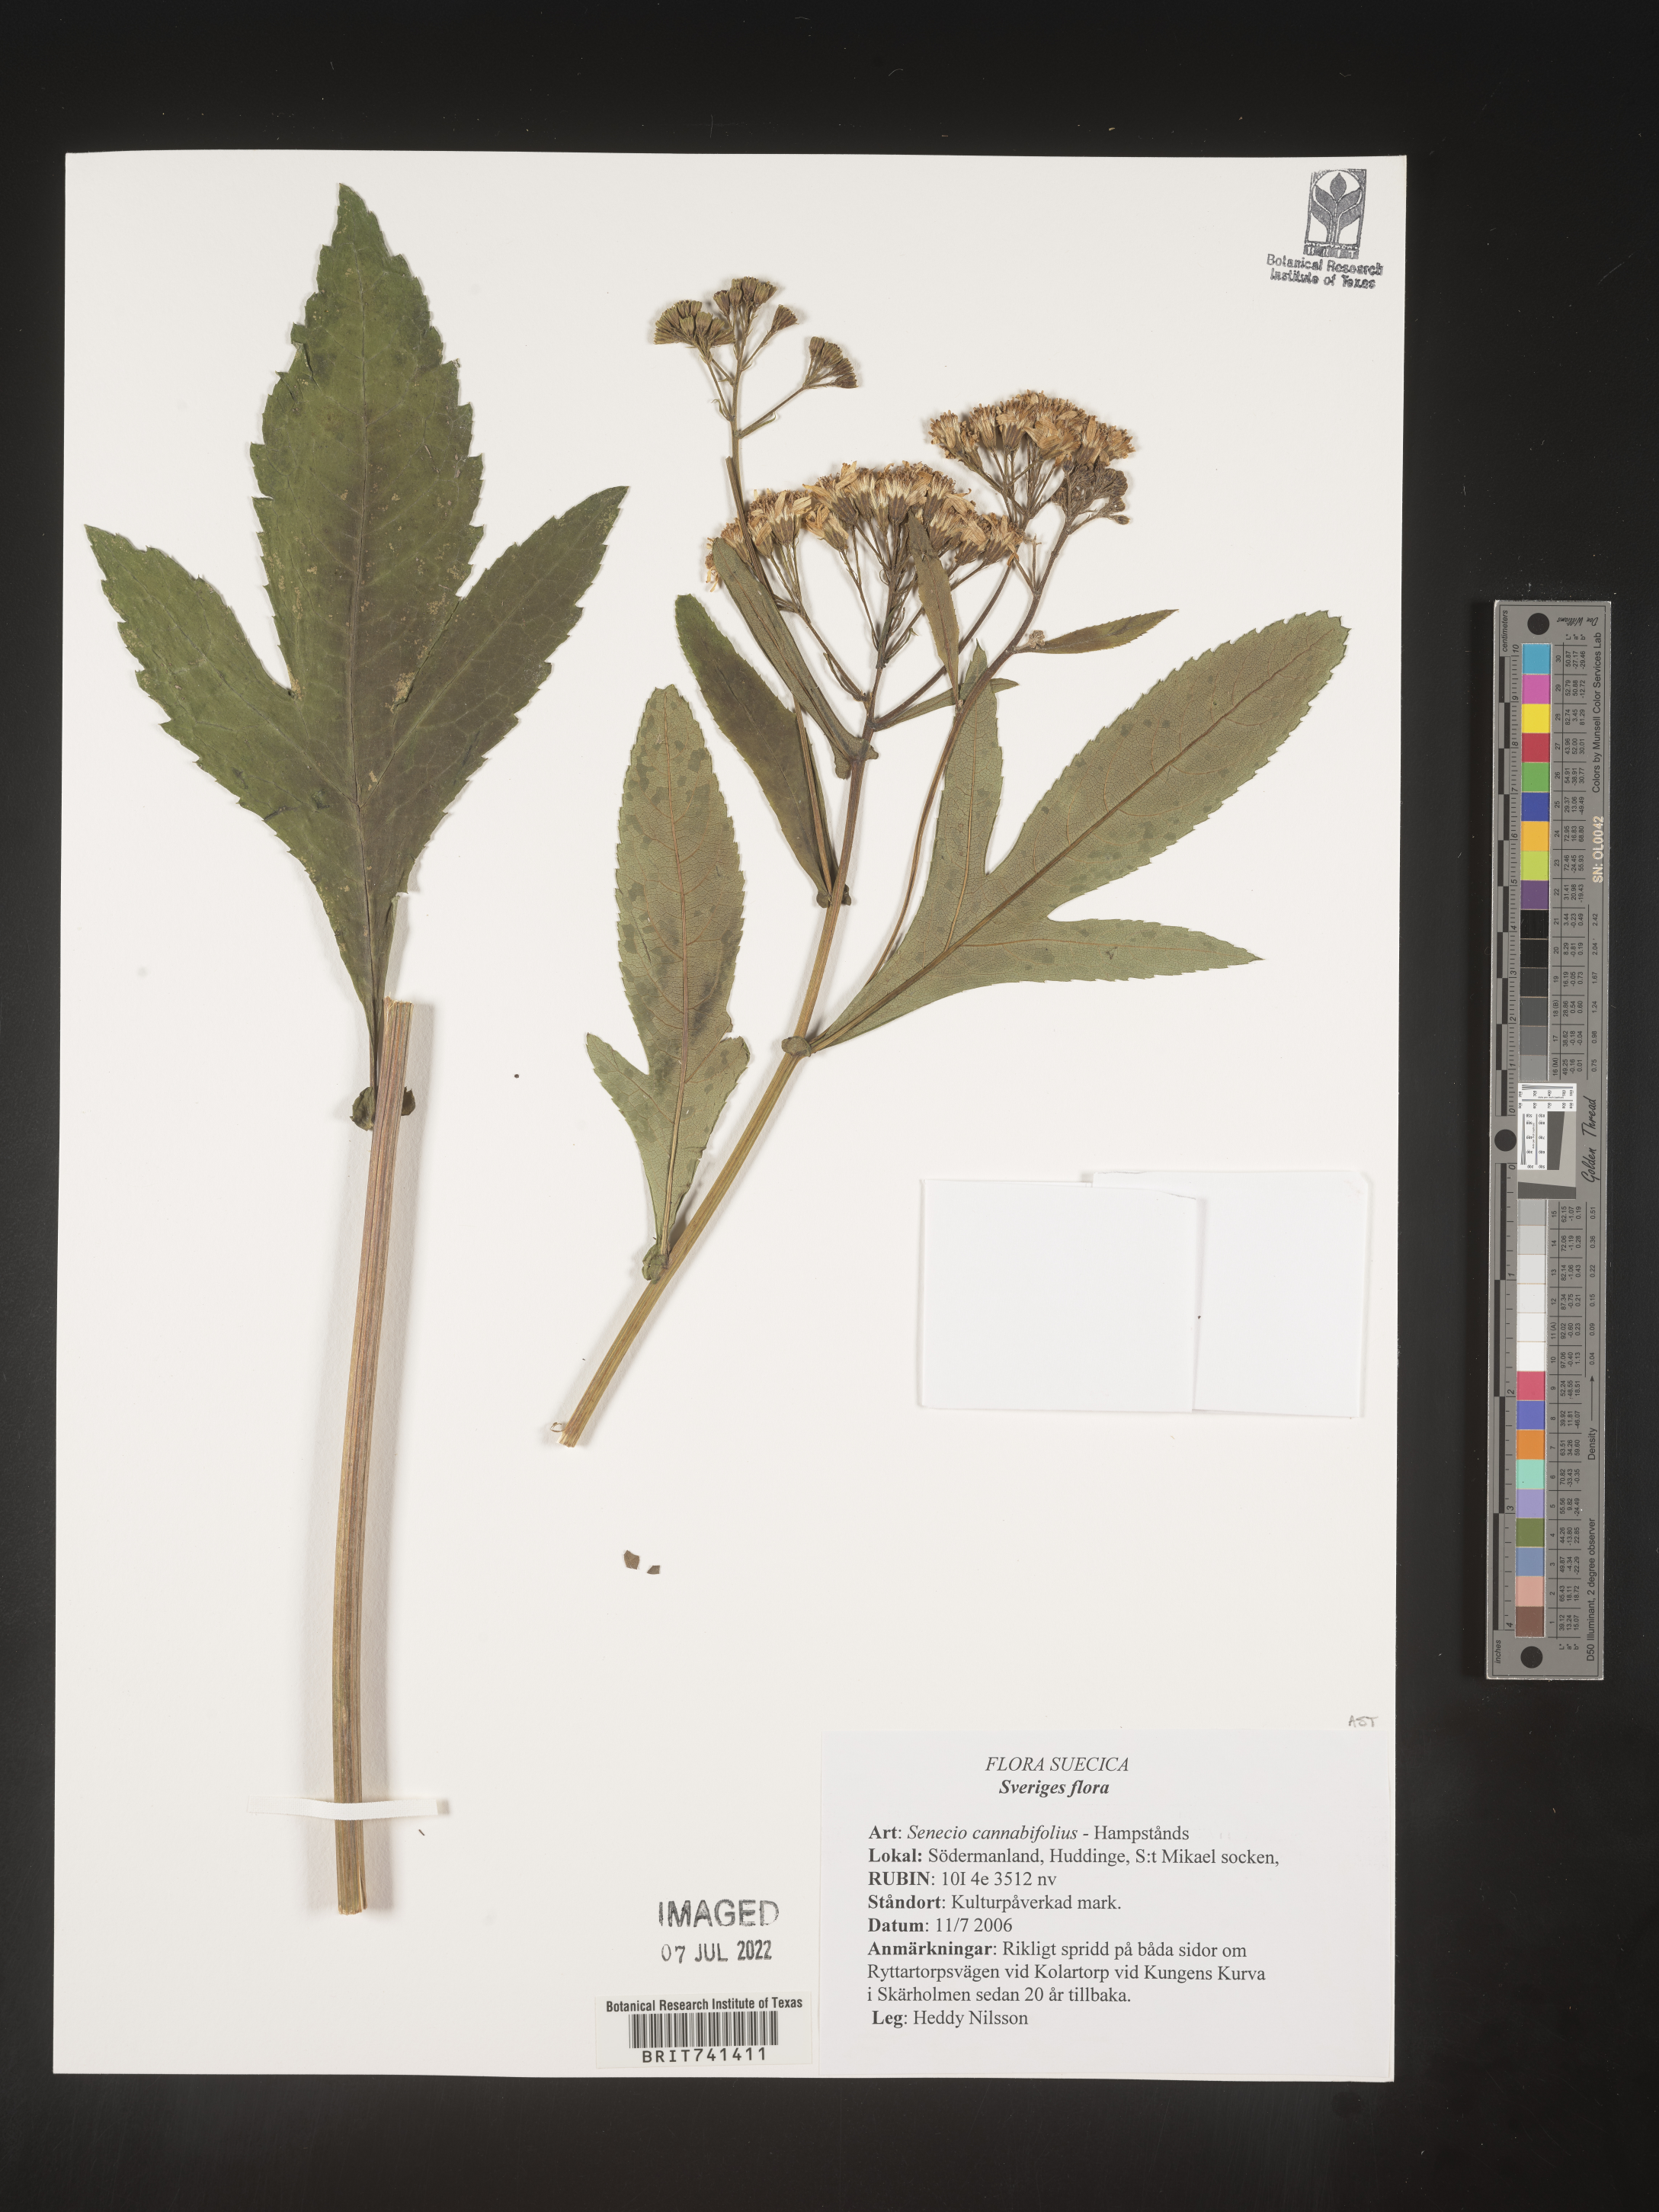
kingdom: Plantae
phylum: Tracheophyta
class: Magnoliopsida
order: Asterales
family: Asteraceae
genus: Senecio
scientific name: Senecio
